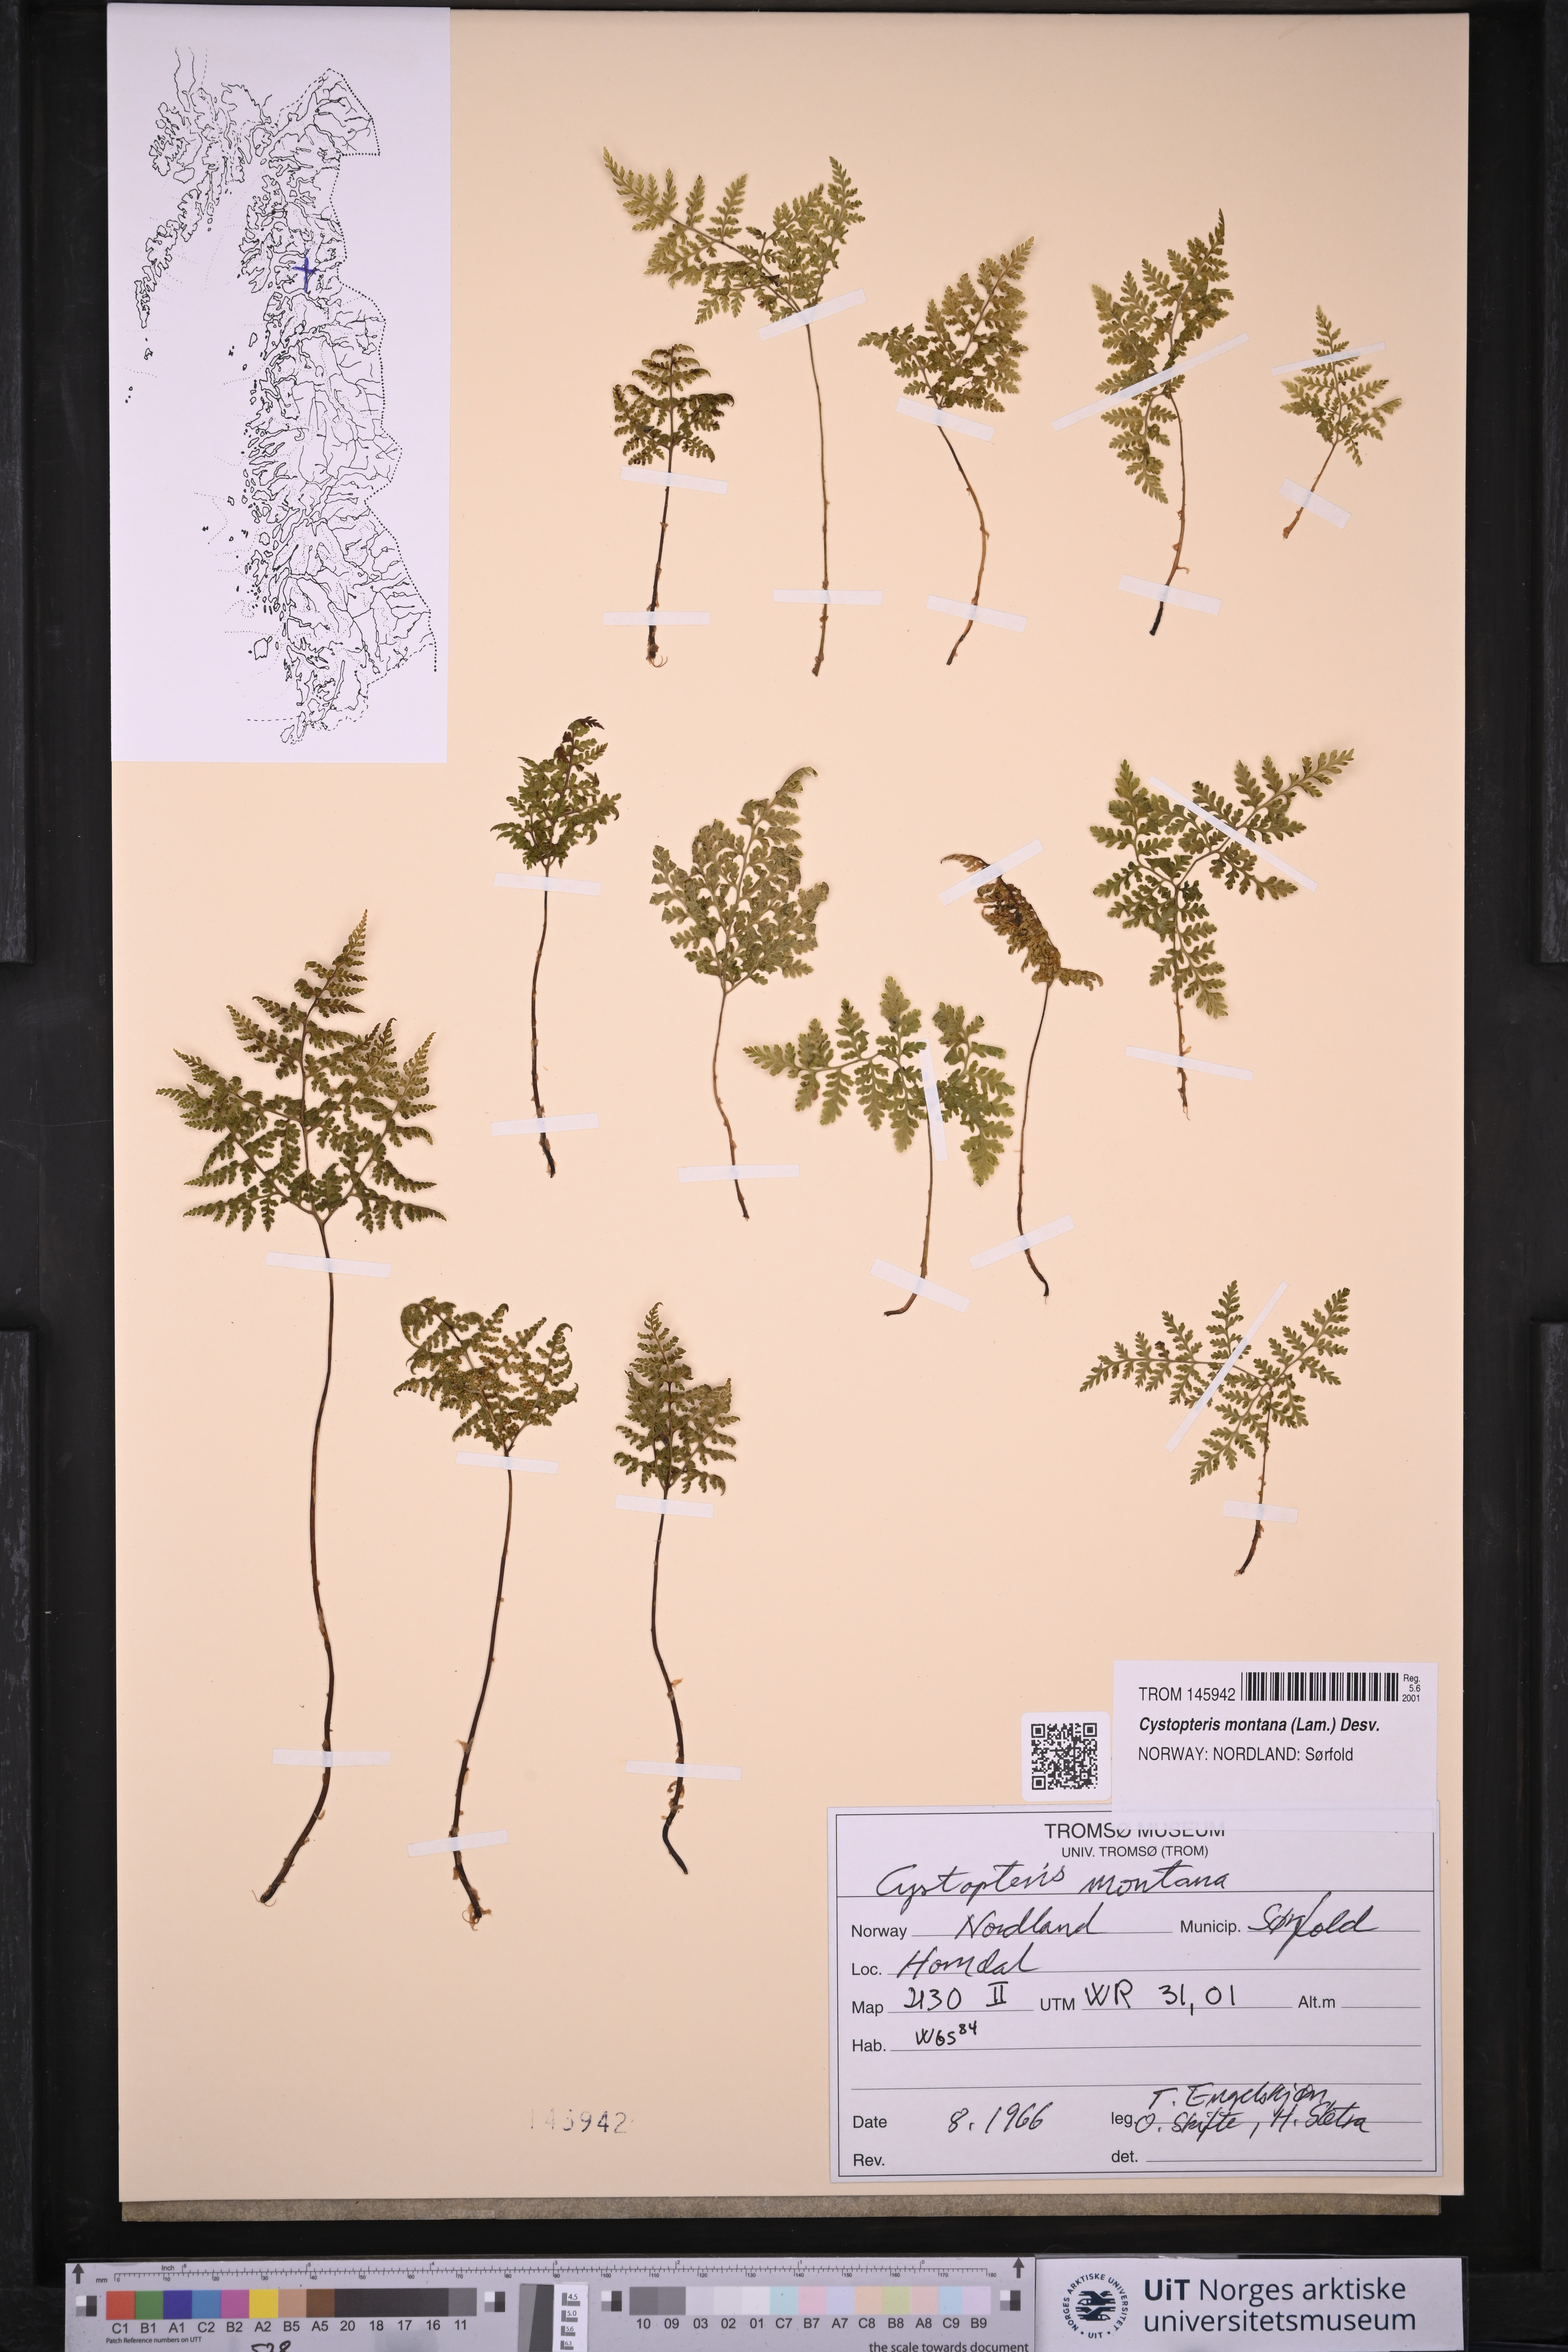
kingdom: Plantae
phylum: Tracheophyta
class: Polypodiopsida
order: Polypodiales
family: Cystopteridaceae
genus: Cystopteris
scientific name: Cystopteris montana
